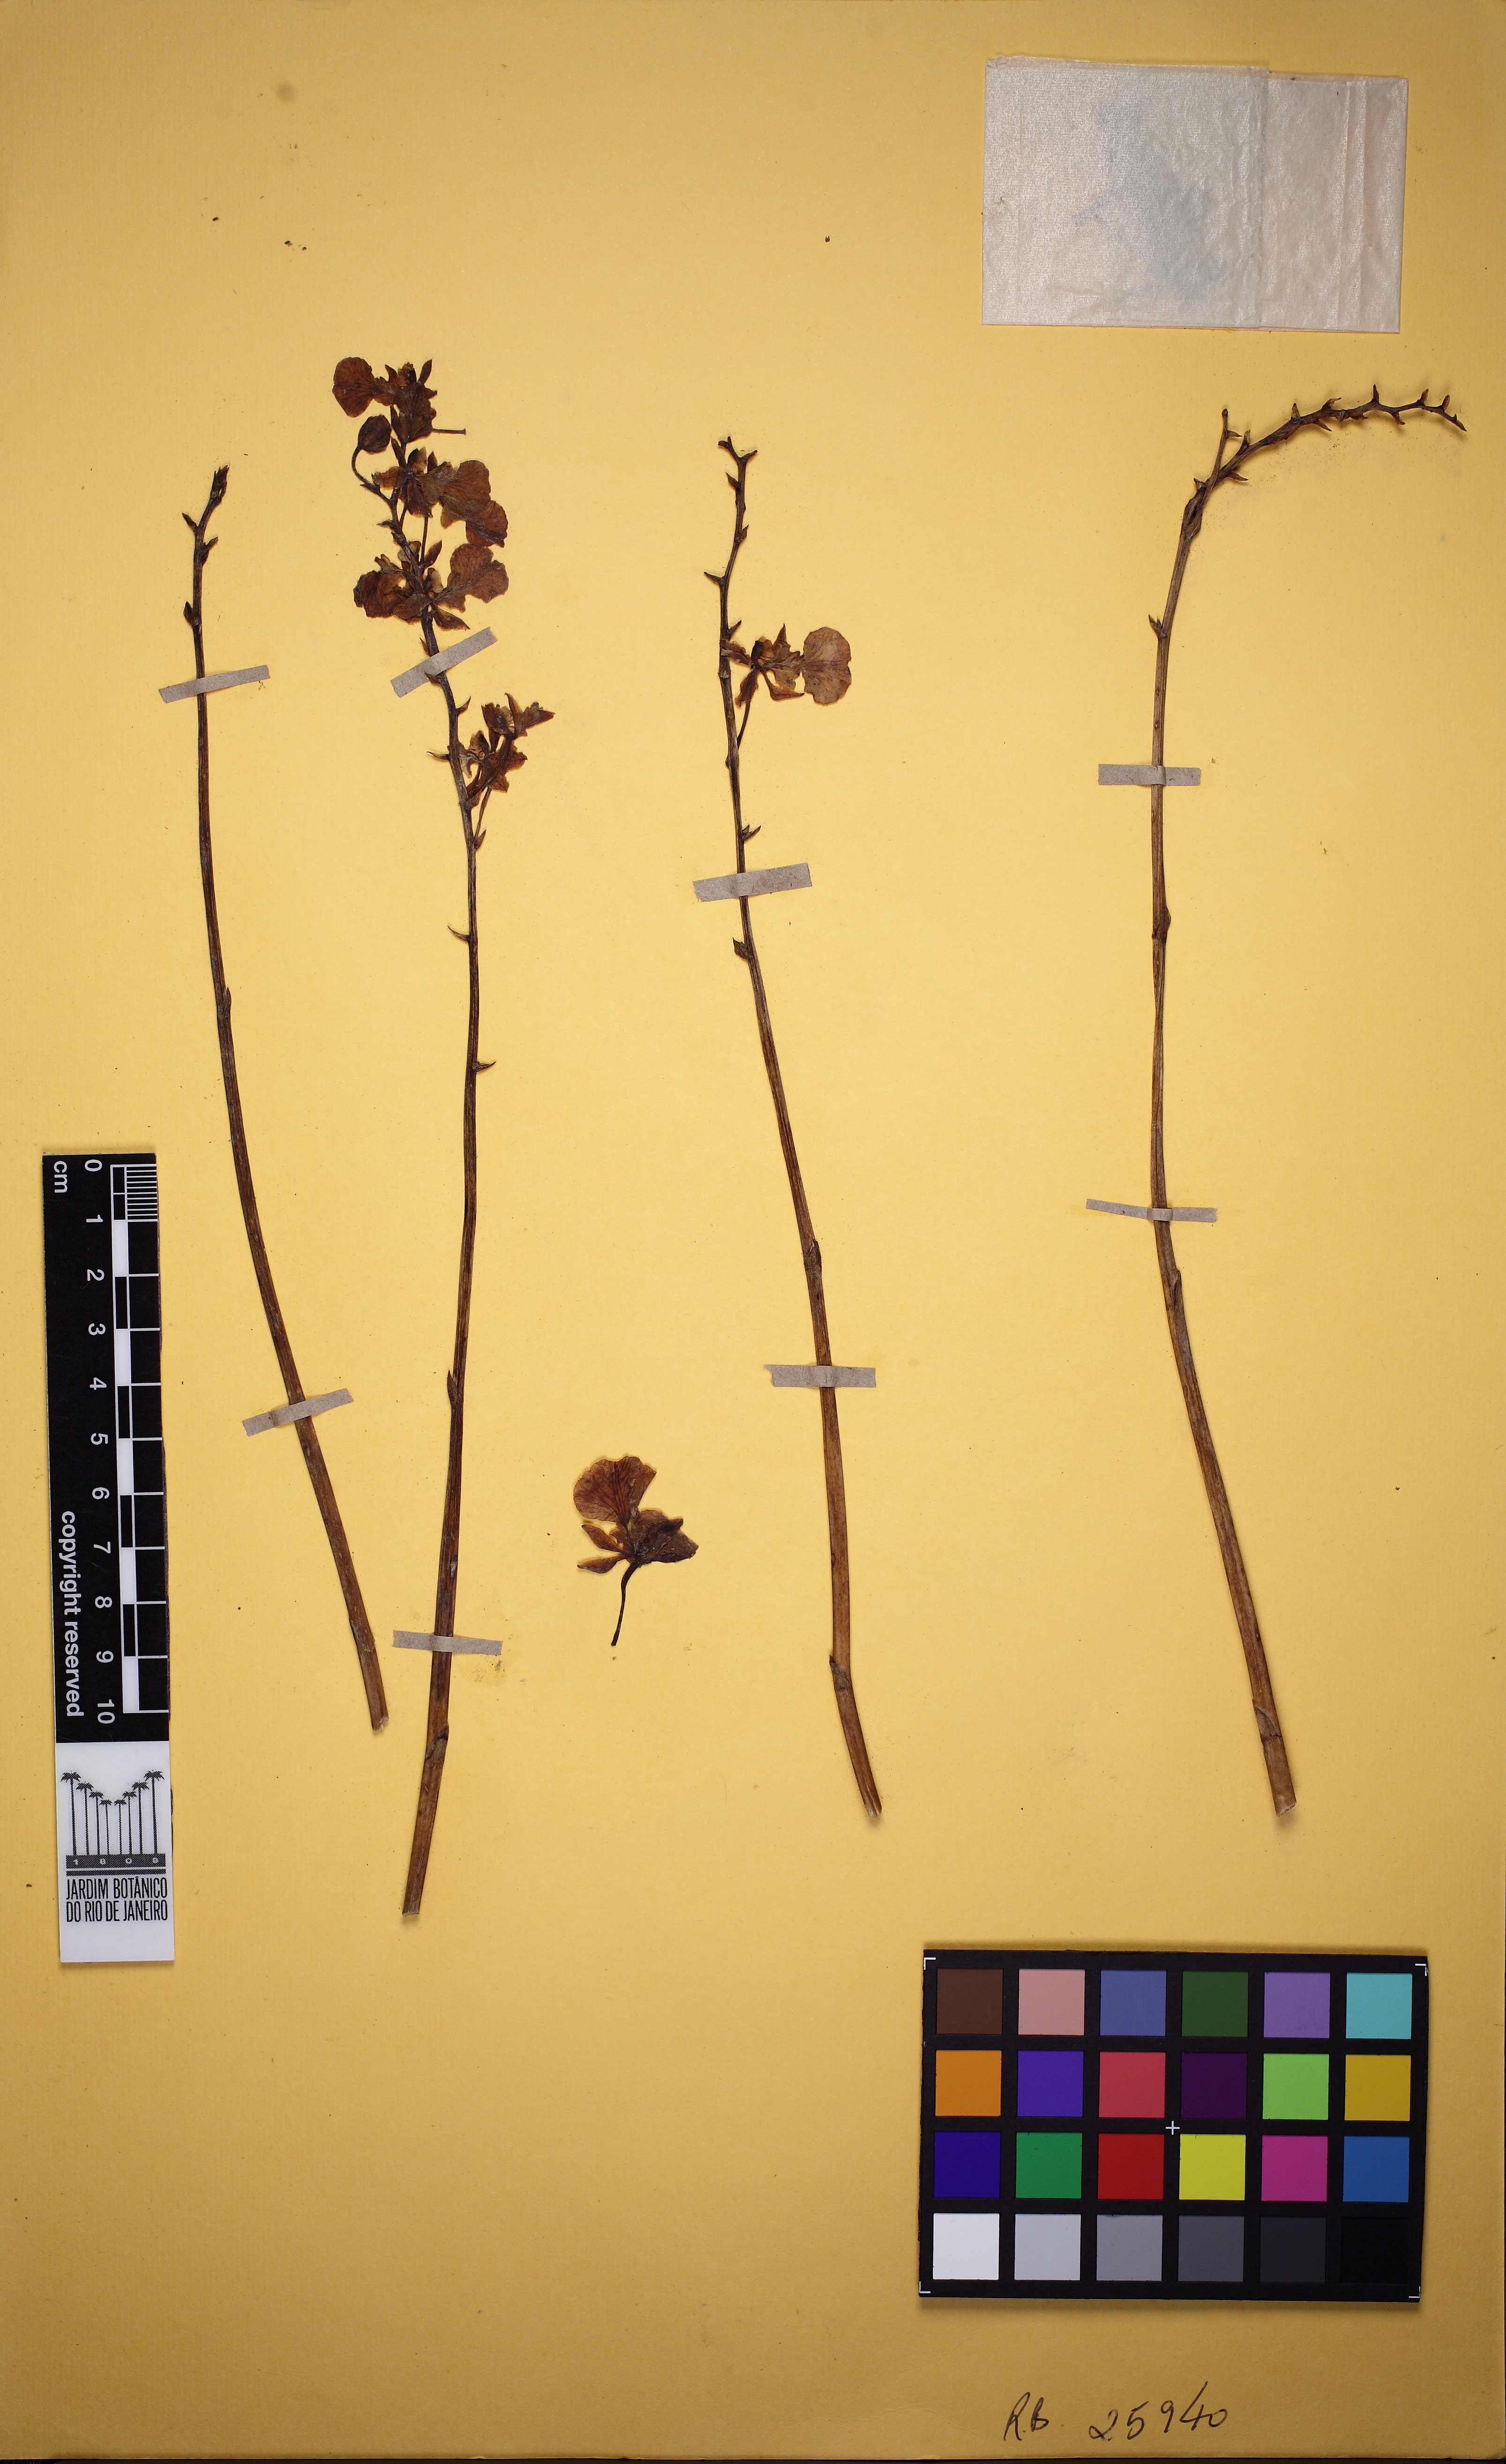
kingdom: Plantae
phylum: Tracheophyta
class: Liliopsida
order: Asparagales
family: Orchidaceae
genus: Gomesa
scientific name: Gomesa barbaceniae
